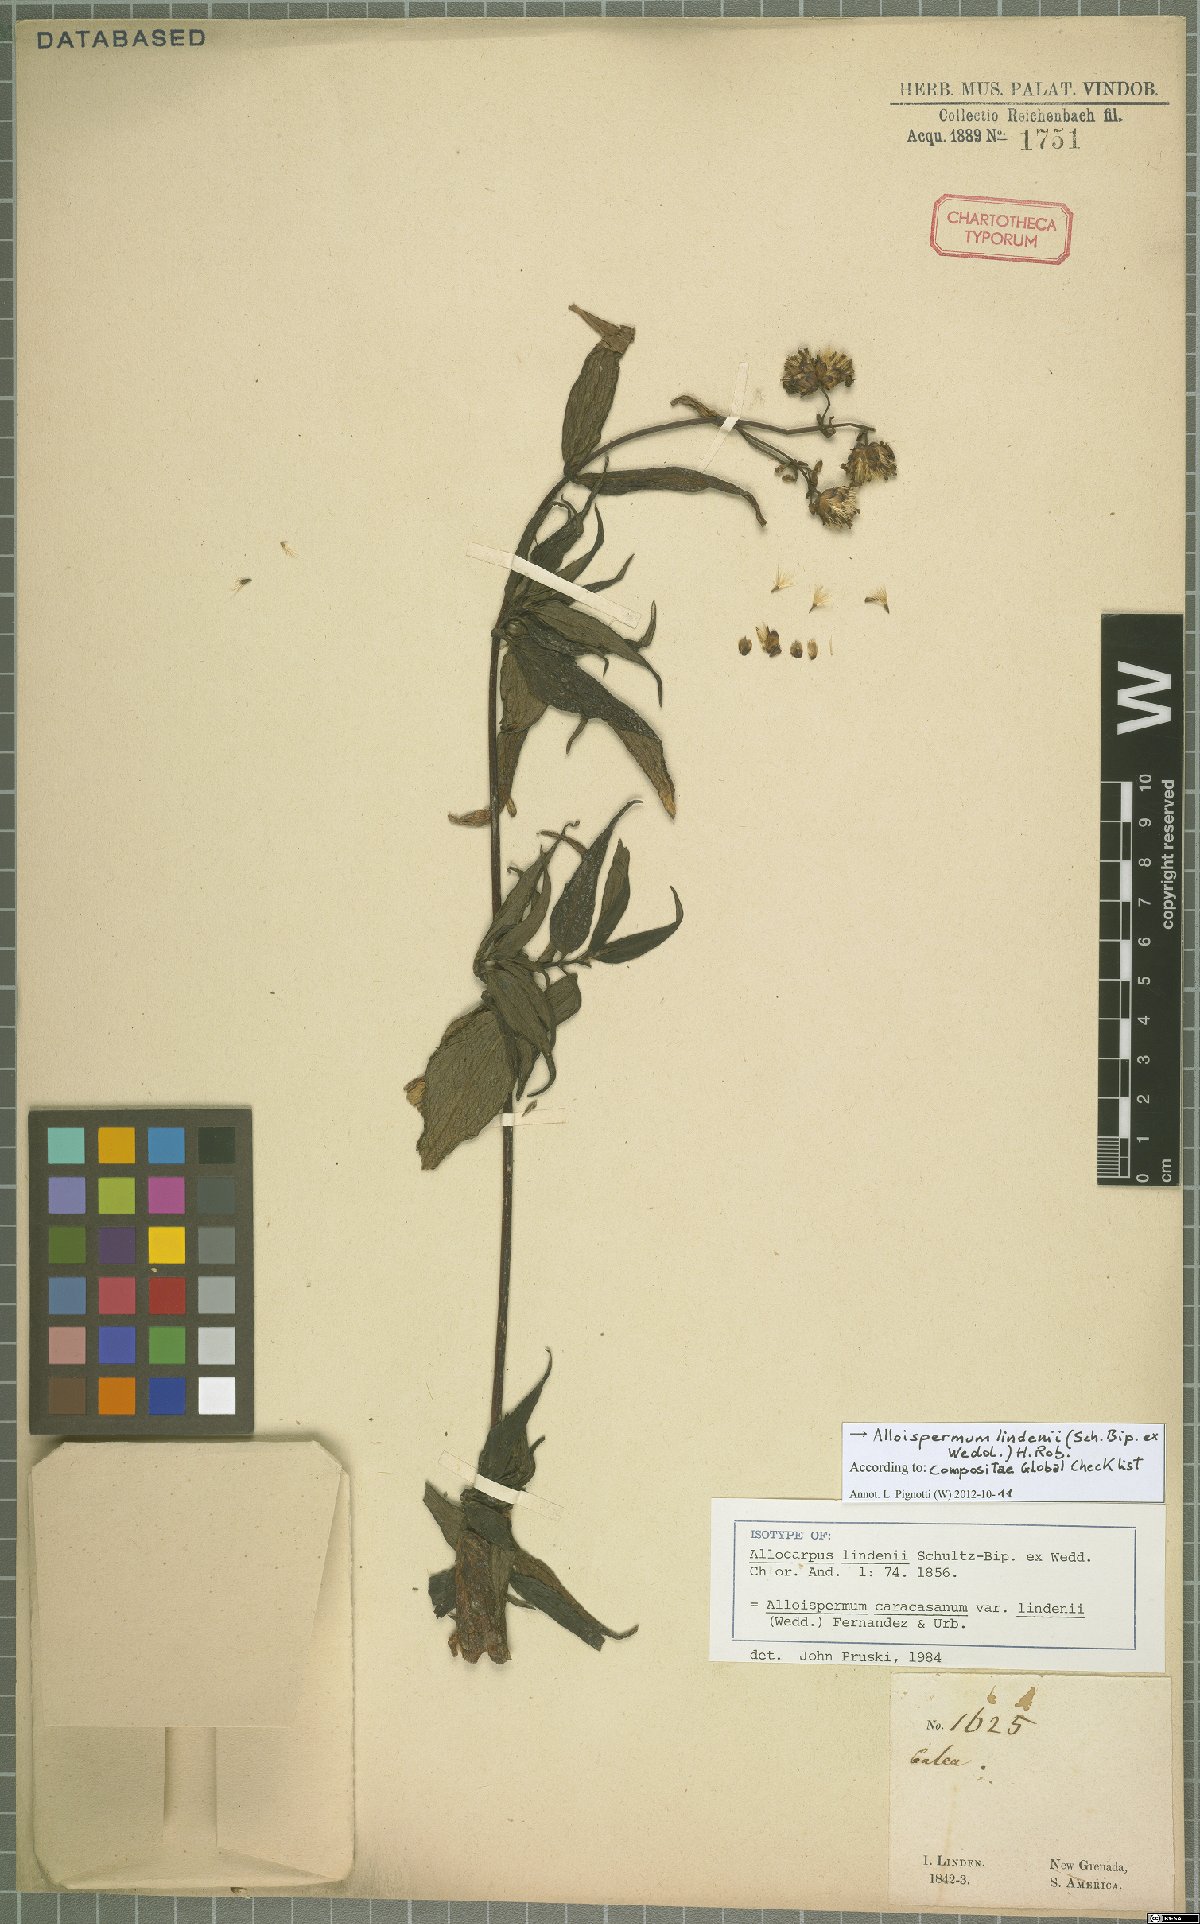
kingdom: Plantae
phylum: Tracheophyta
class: Magnoliopsida
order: Asterales
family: Asteraceae
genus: Alloispermum
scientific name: Alloispermum lindenii
